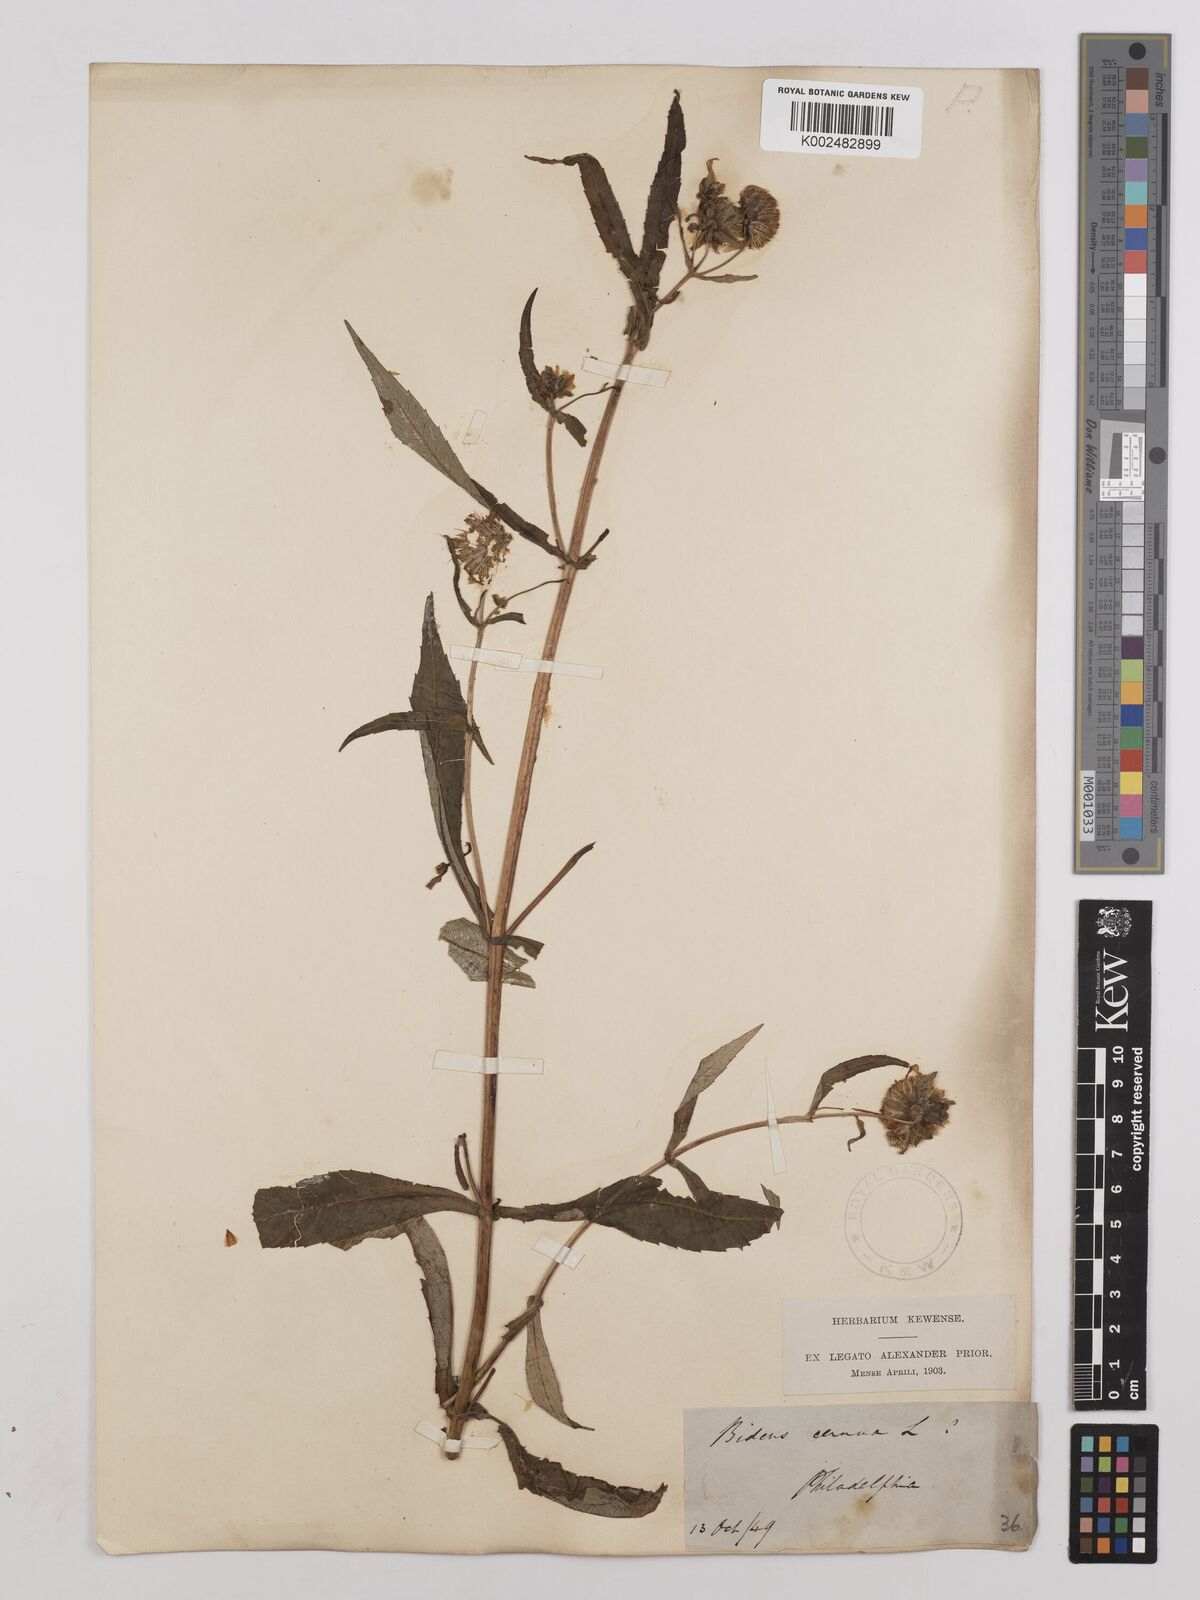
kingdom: Plantae
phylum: Tracheophyta
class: Magnoliopsida
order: Asterales
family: Asteraceae
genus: Bidens
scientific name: Bidens
